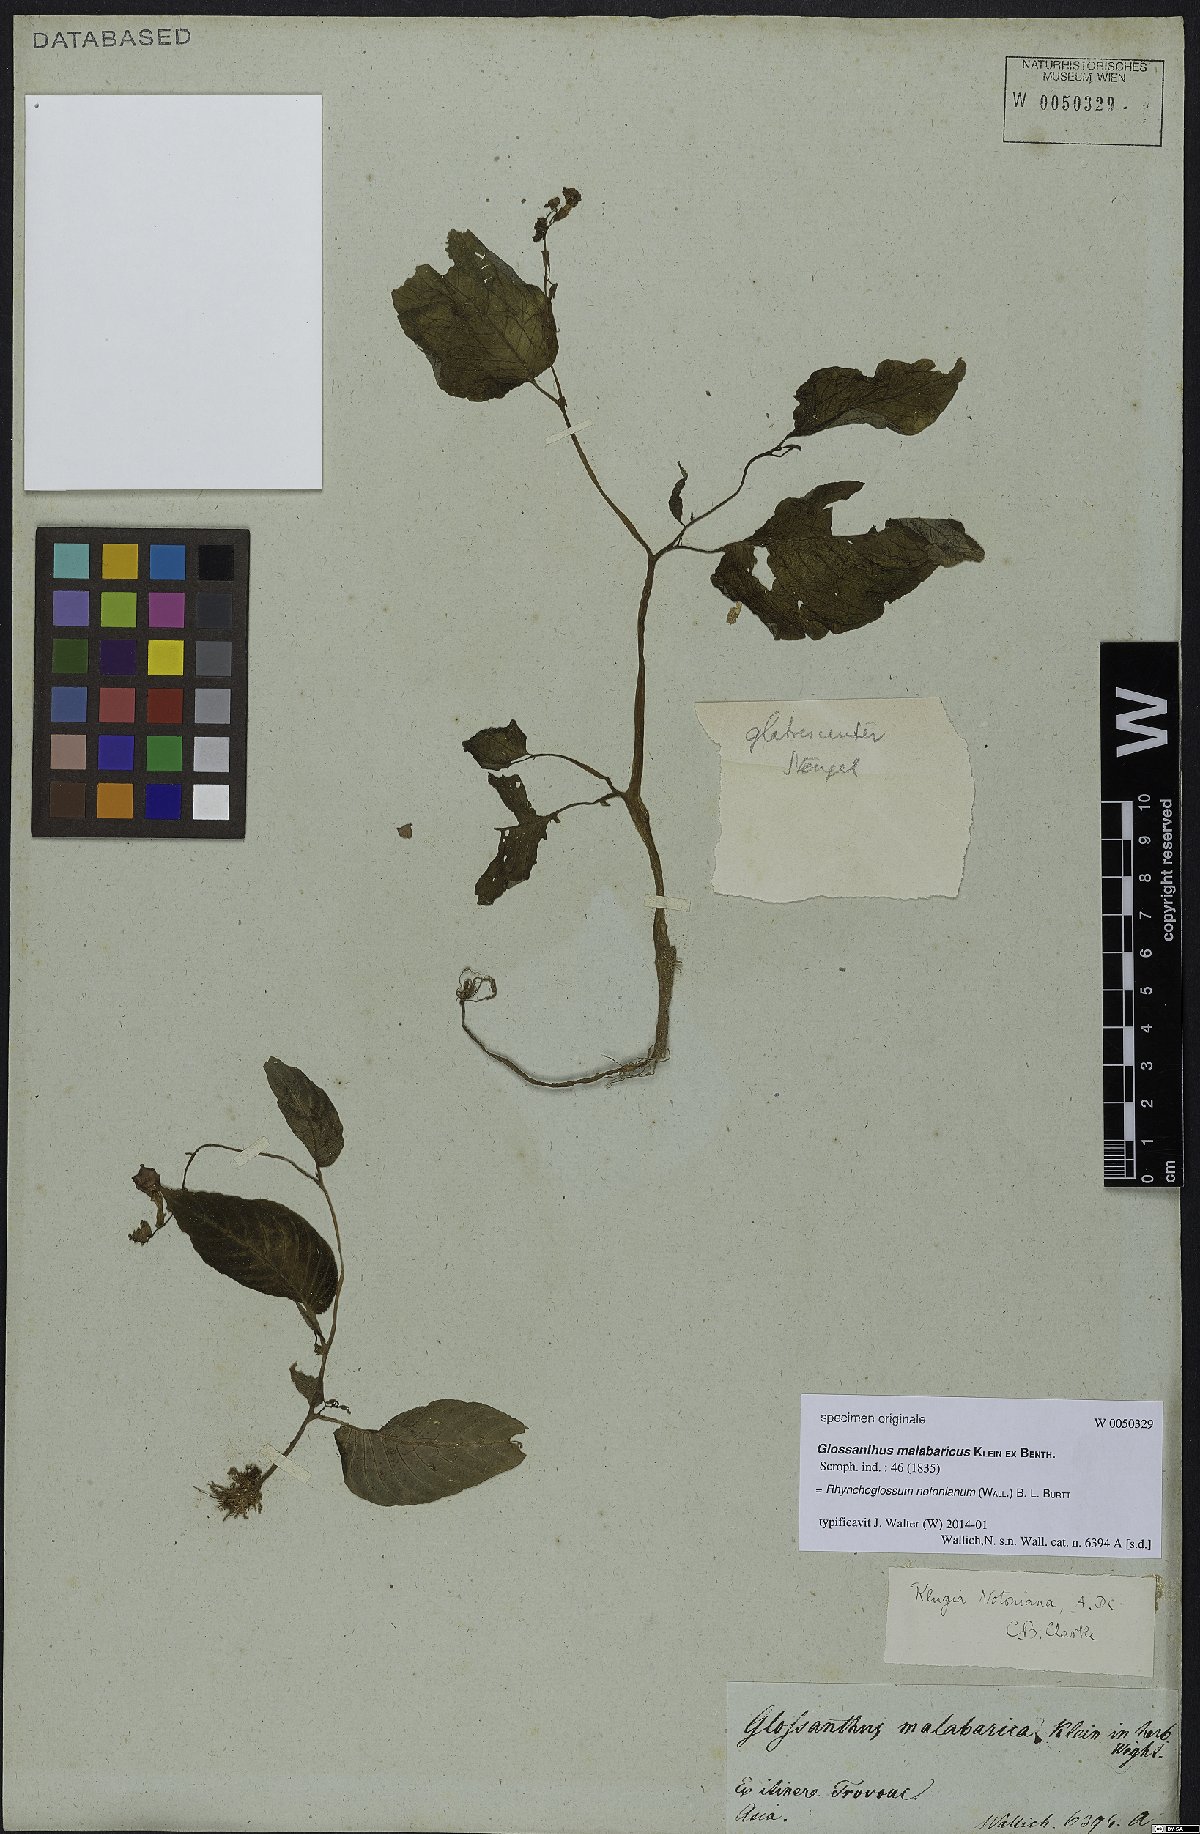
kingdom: Plantae
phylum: Tracheophyta
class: Magnoliopsida
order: Lamiales
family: Gesneriaceae
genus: Rhynchoglossum
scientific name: Rhynchoglossum notonianum
